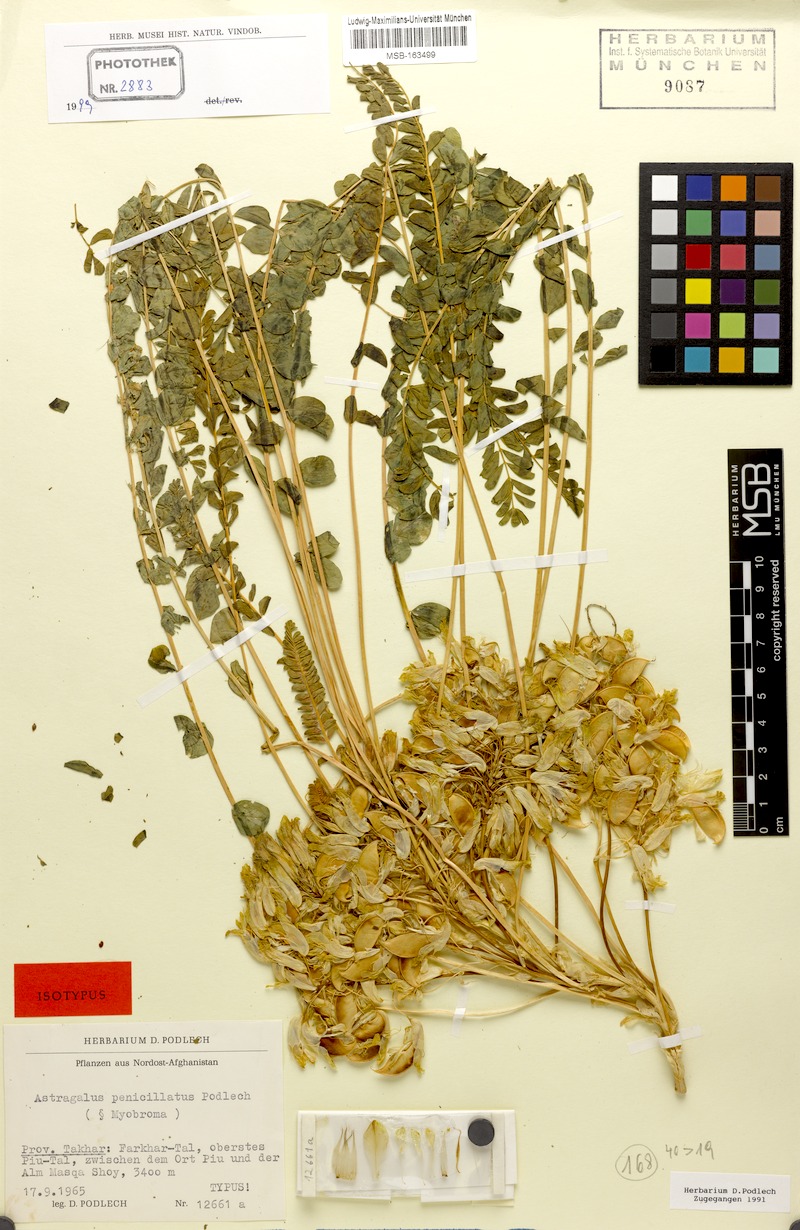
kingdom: Plantae
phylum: Tracheophyta
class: Magnoliopsida
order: Fabales
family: Fabaceae
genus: Astragalus
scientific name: Astragalus penicillatus
